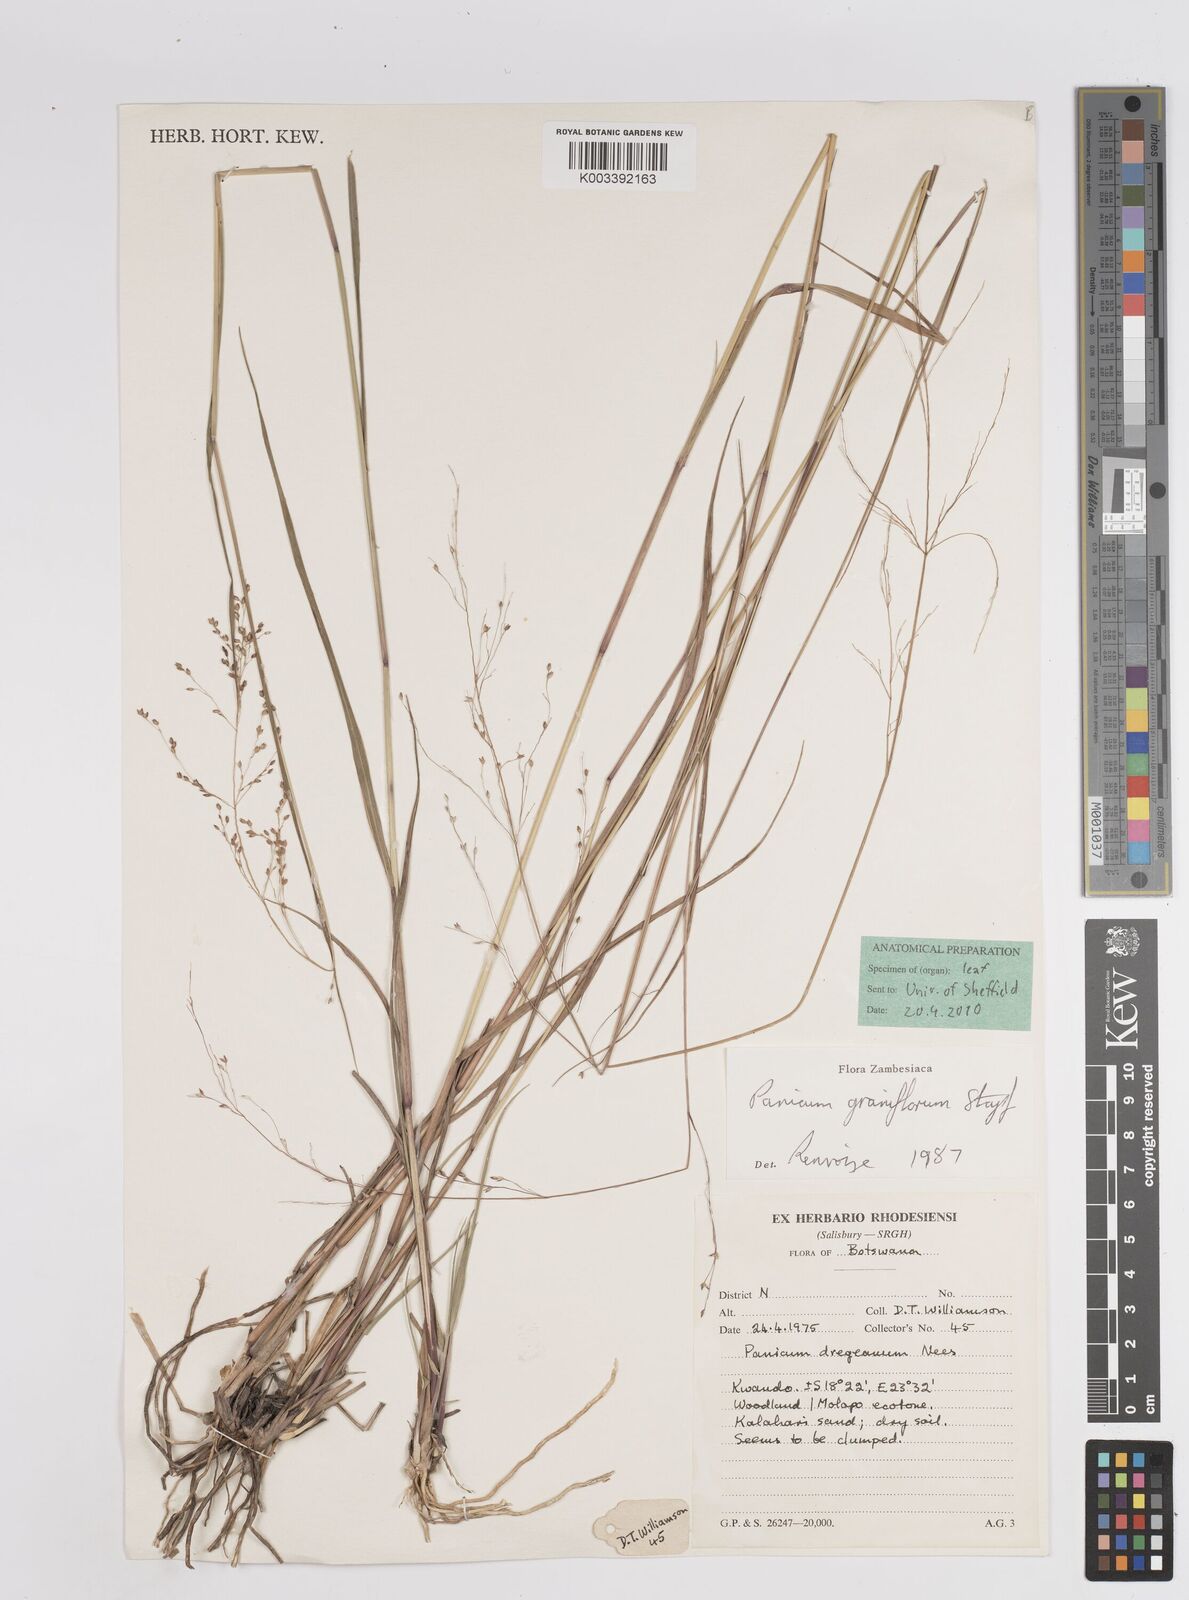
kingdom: Plantae
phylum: Tracheophyta
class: Liliopsida
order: Poales
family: Poaceae
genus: Panicum
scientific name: Panicum graniflorum
